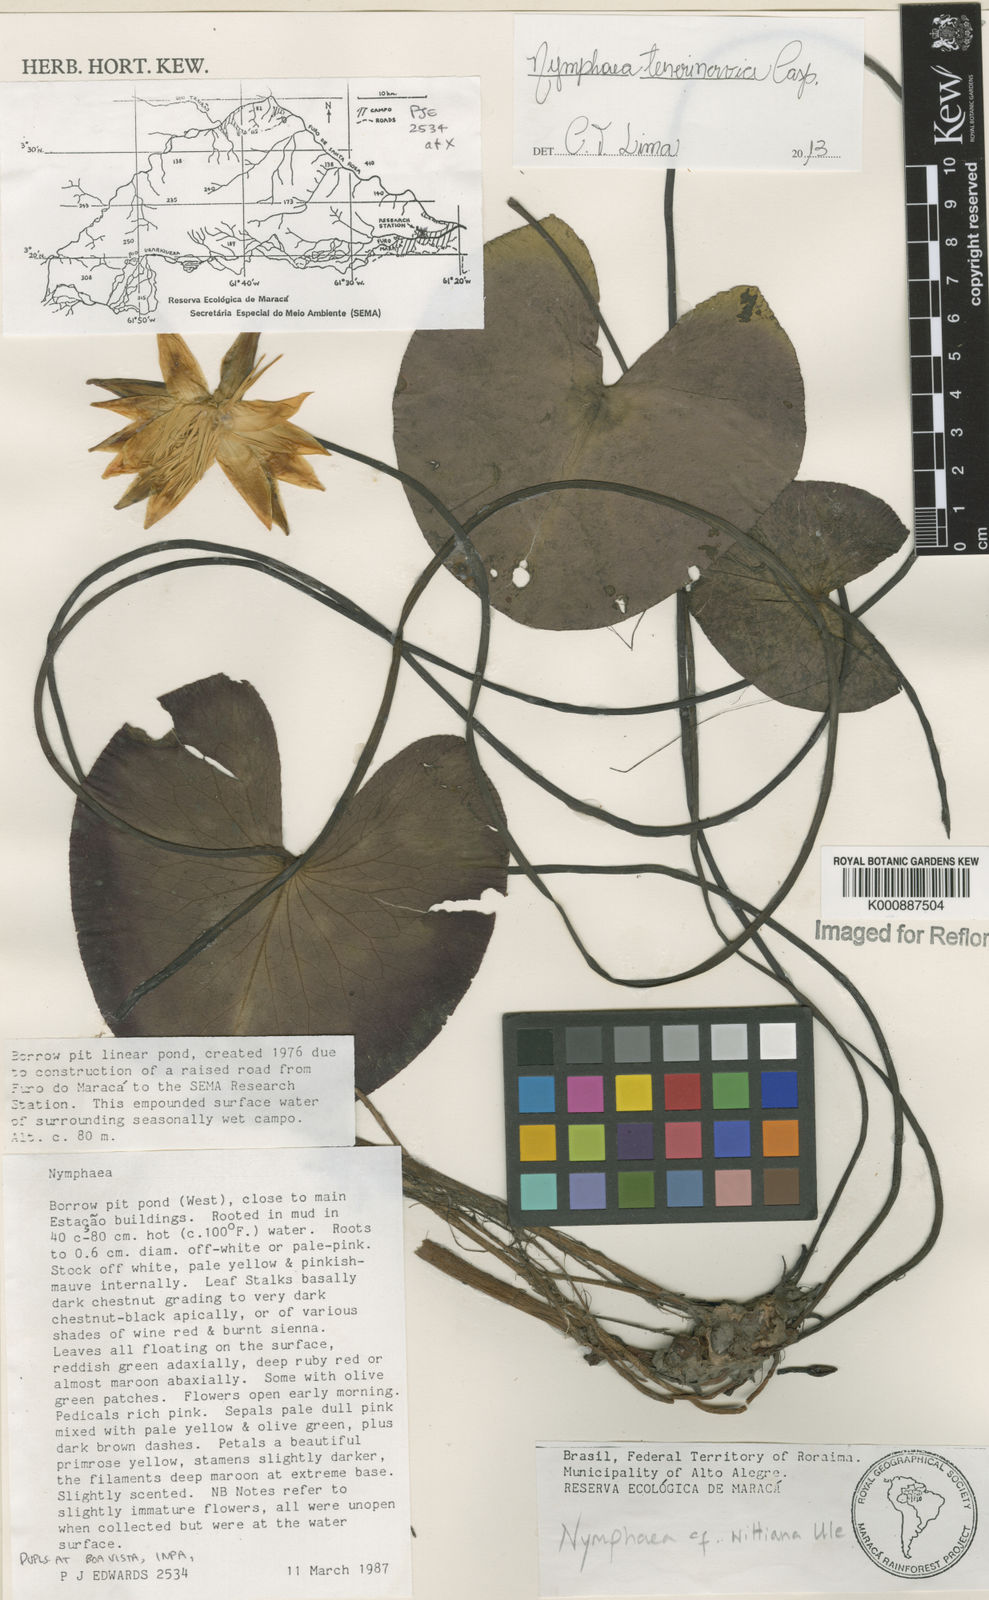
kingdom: Plantae
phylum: Tracheophyta
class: Magnoliopsida
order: Nymphaeales
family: Nymphaeaceae
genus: Nymphaea
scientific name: Nymphaea tenerinervia
